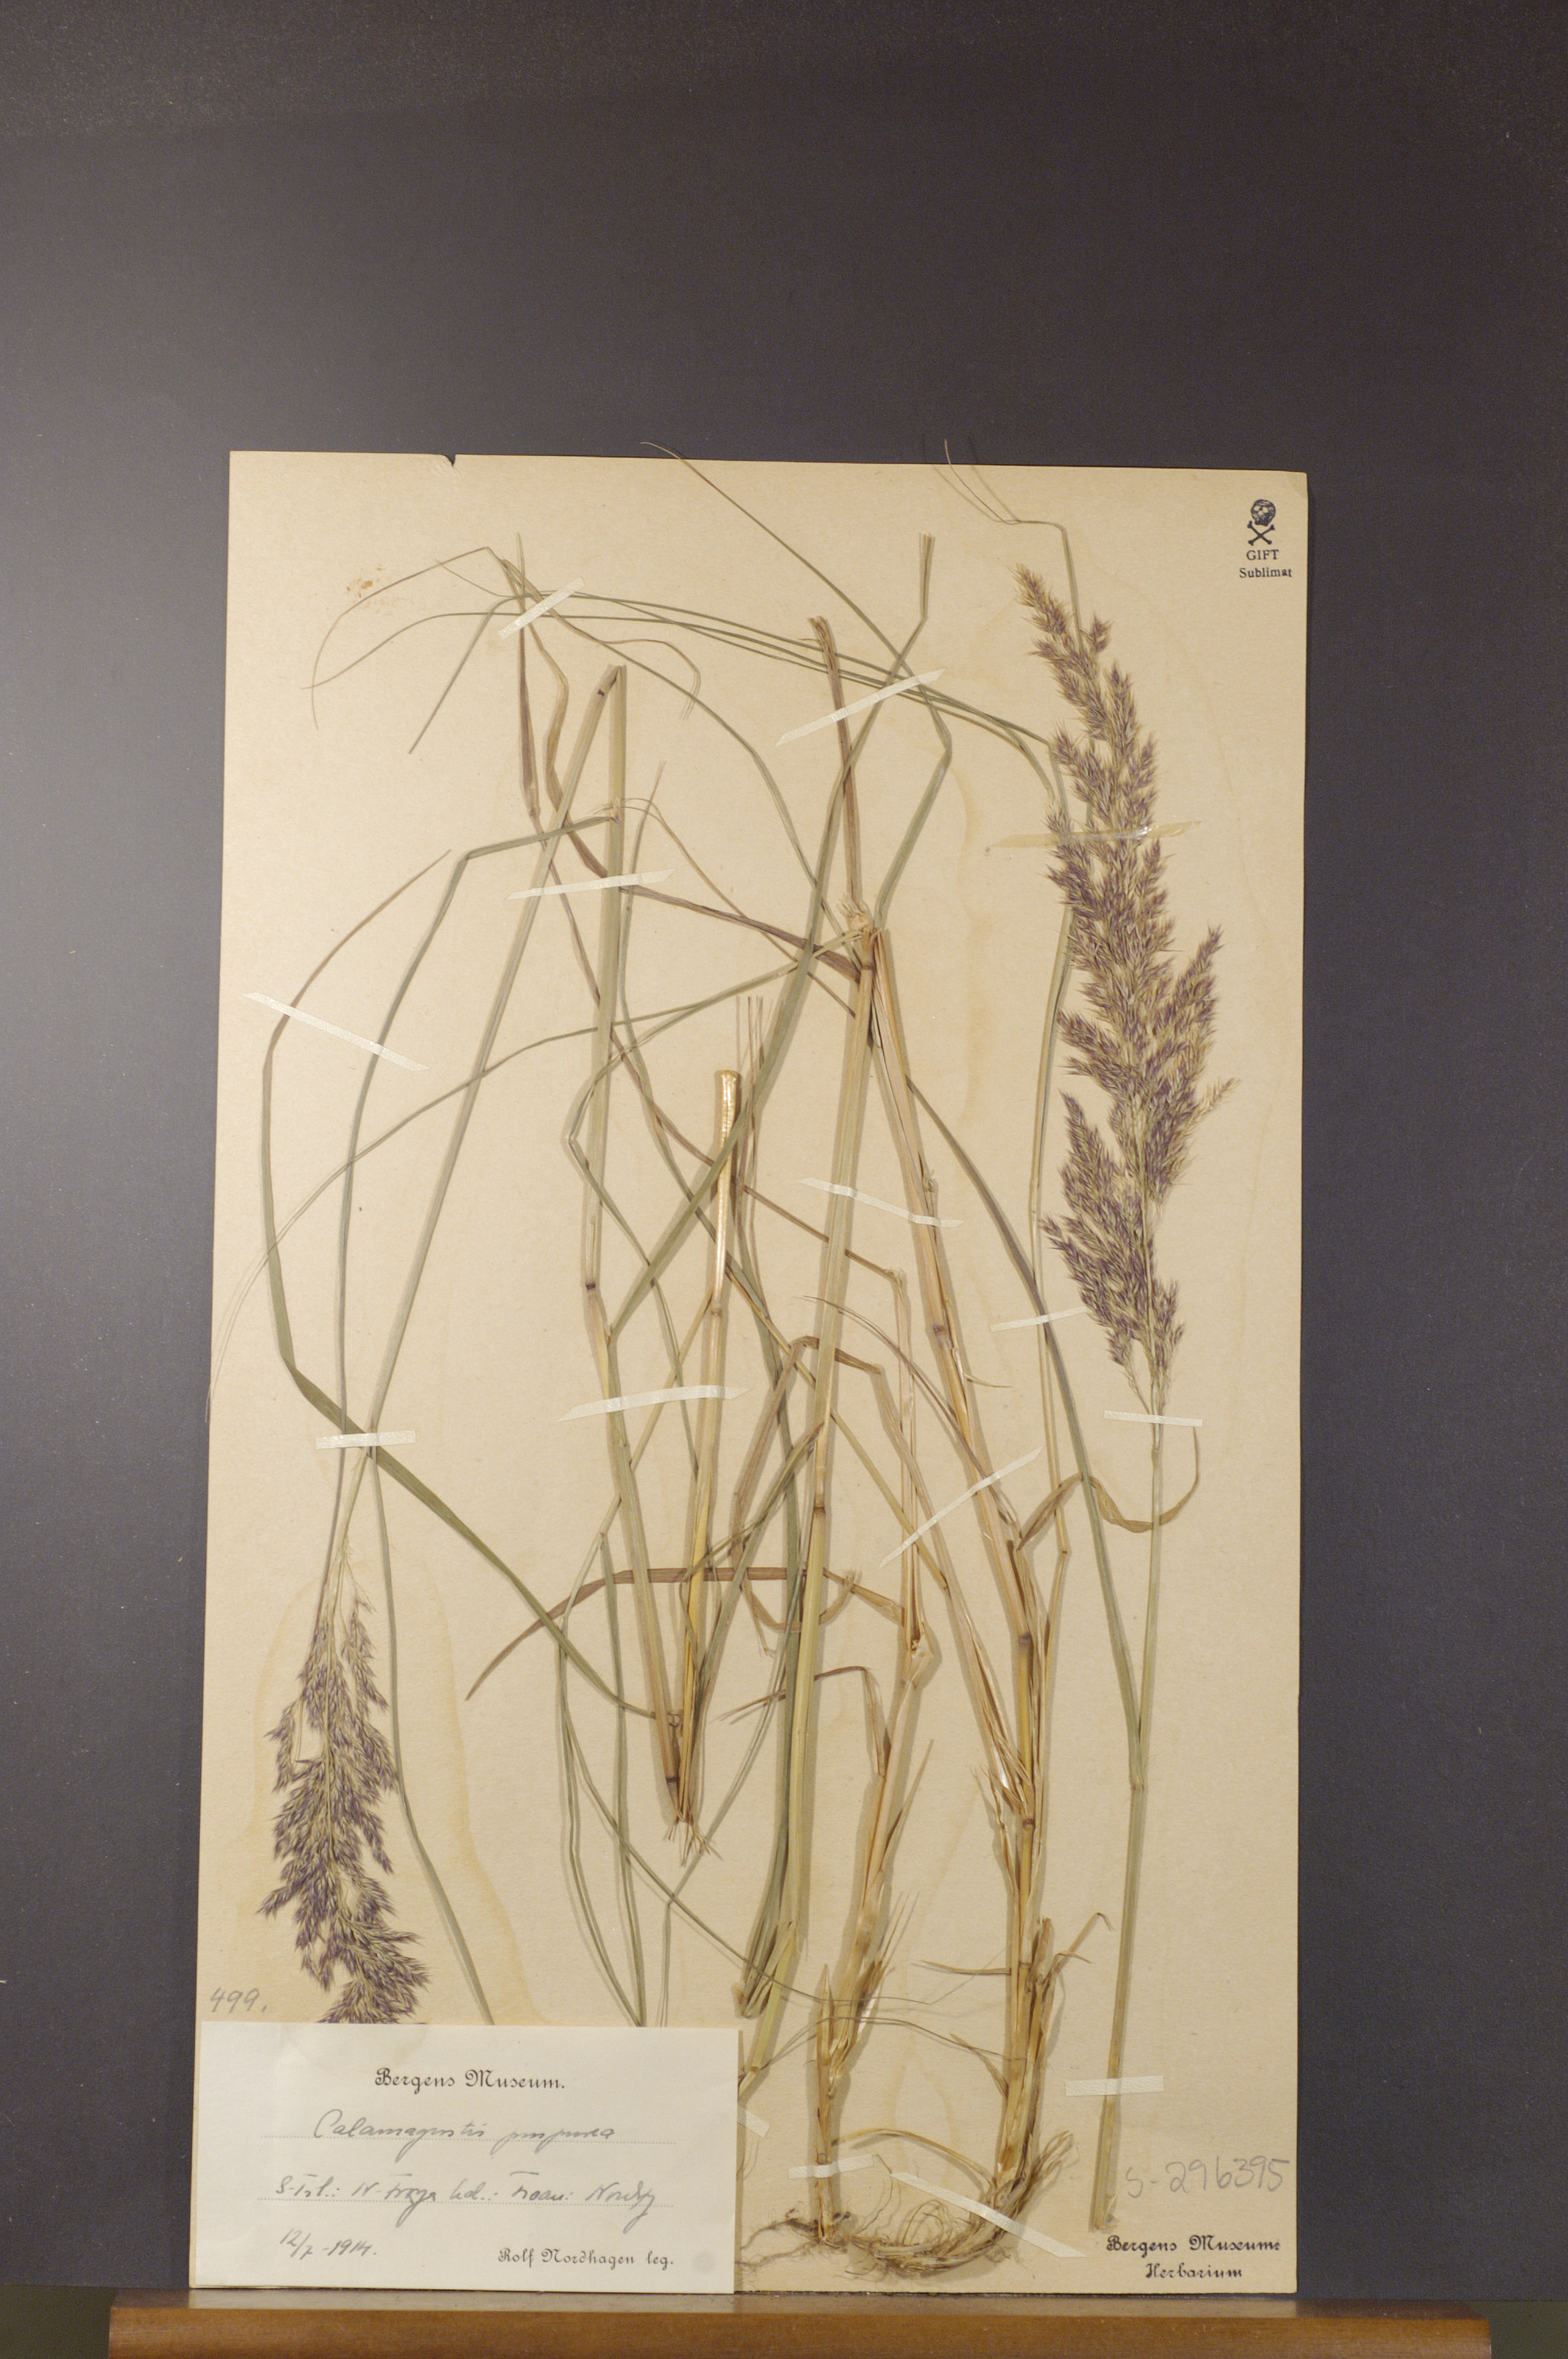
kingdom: Plantae
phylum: Tracheophyta
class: Liliopsida
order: Poales
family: Poaceae
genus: Calamagrostis
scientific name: Calamagrostis purpurea
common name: Scandinavian small-reed
